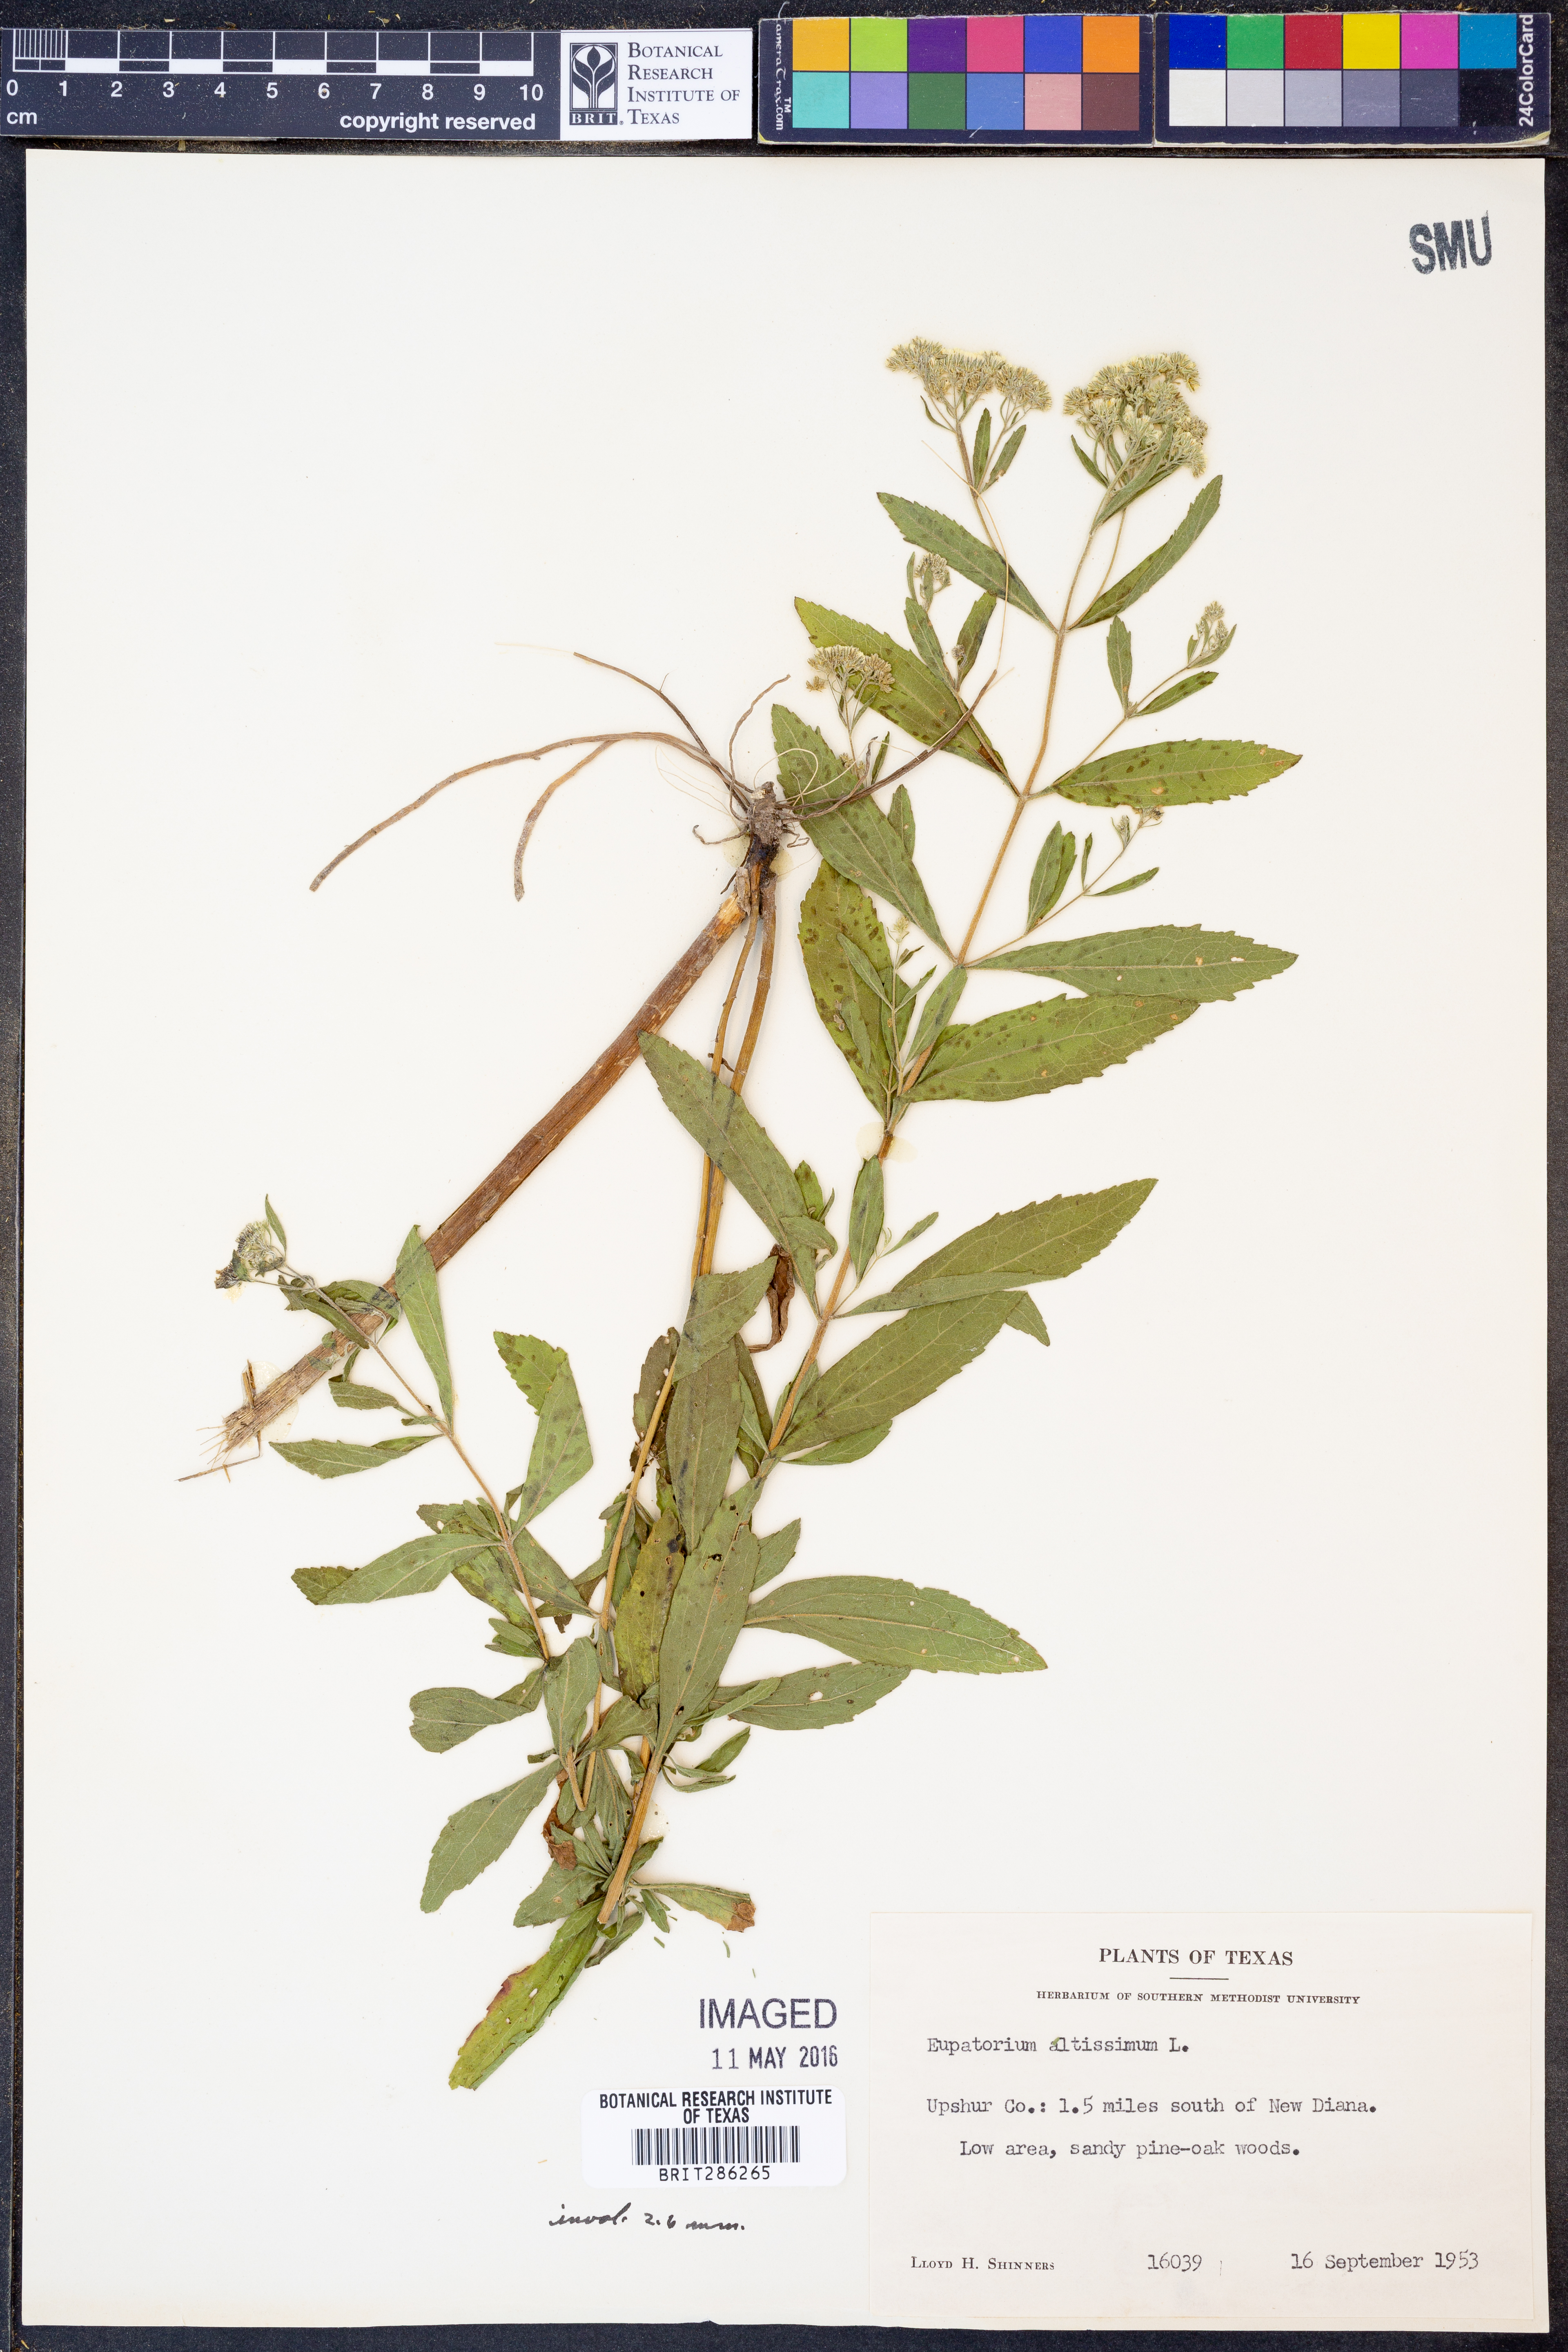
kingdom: Plantae
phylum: Tracheophyta
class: Magnoliopsida
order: Asterales
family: Asteraceae
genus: Eupatorium
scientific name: Eupatorium altissimum
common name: Tall thoroughwort
